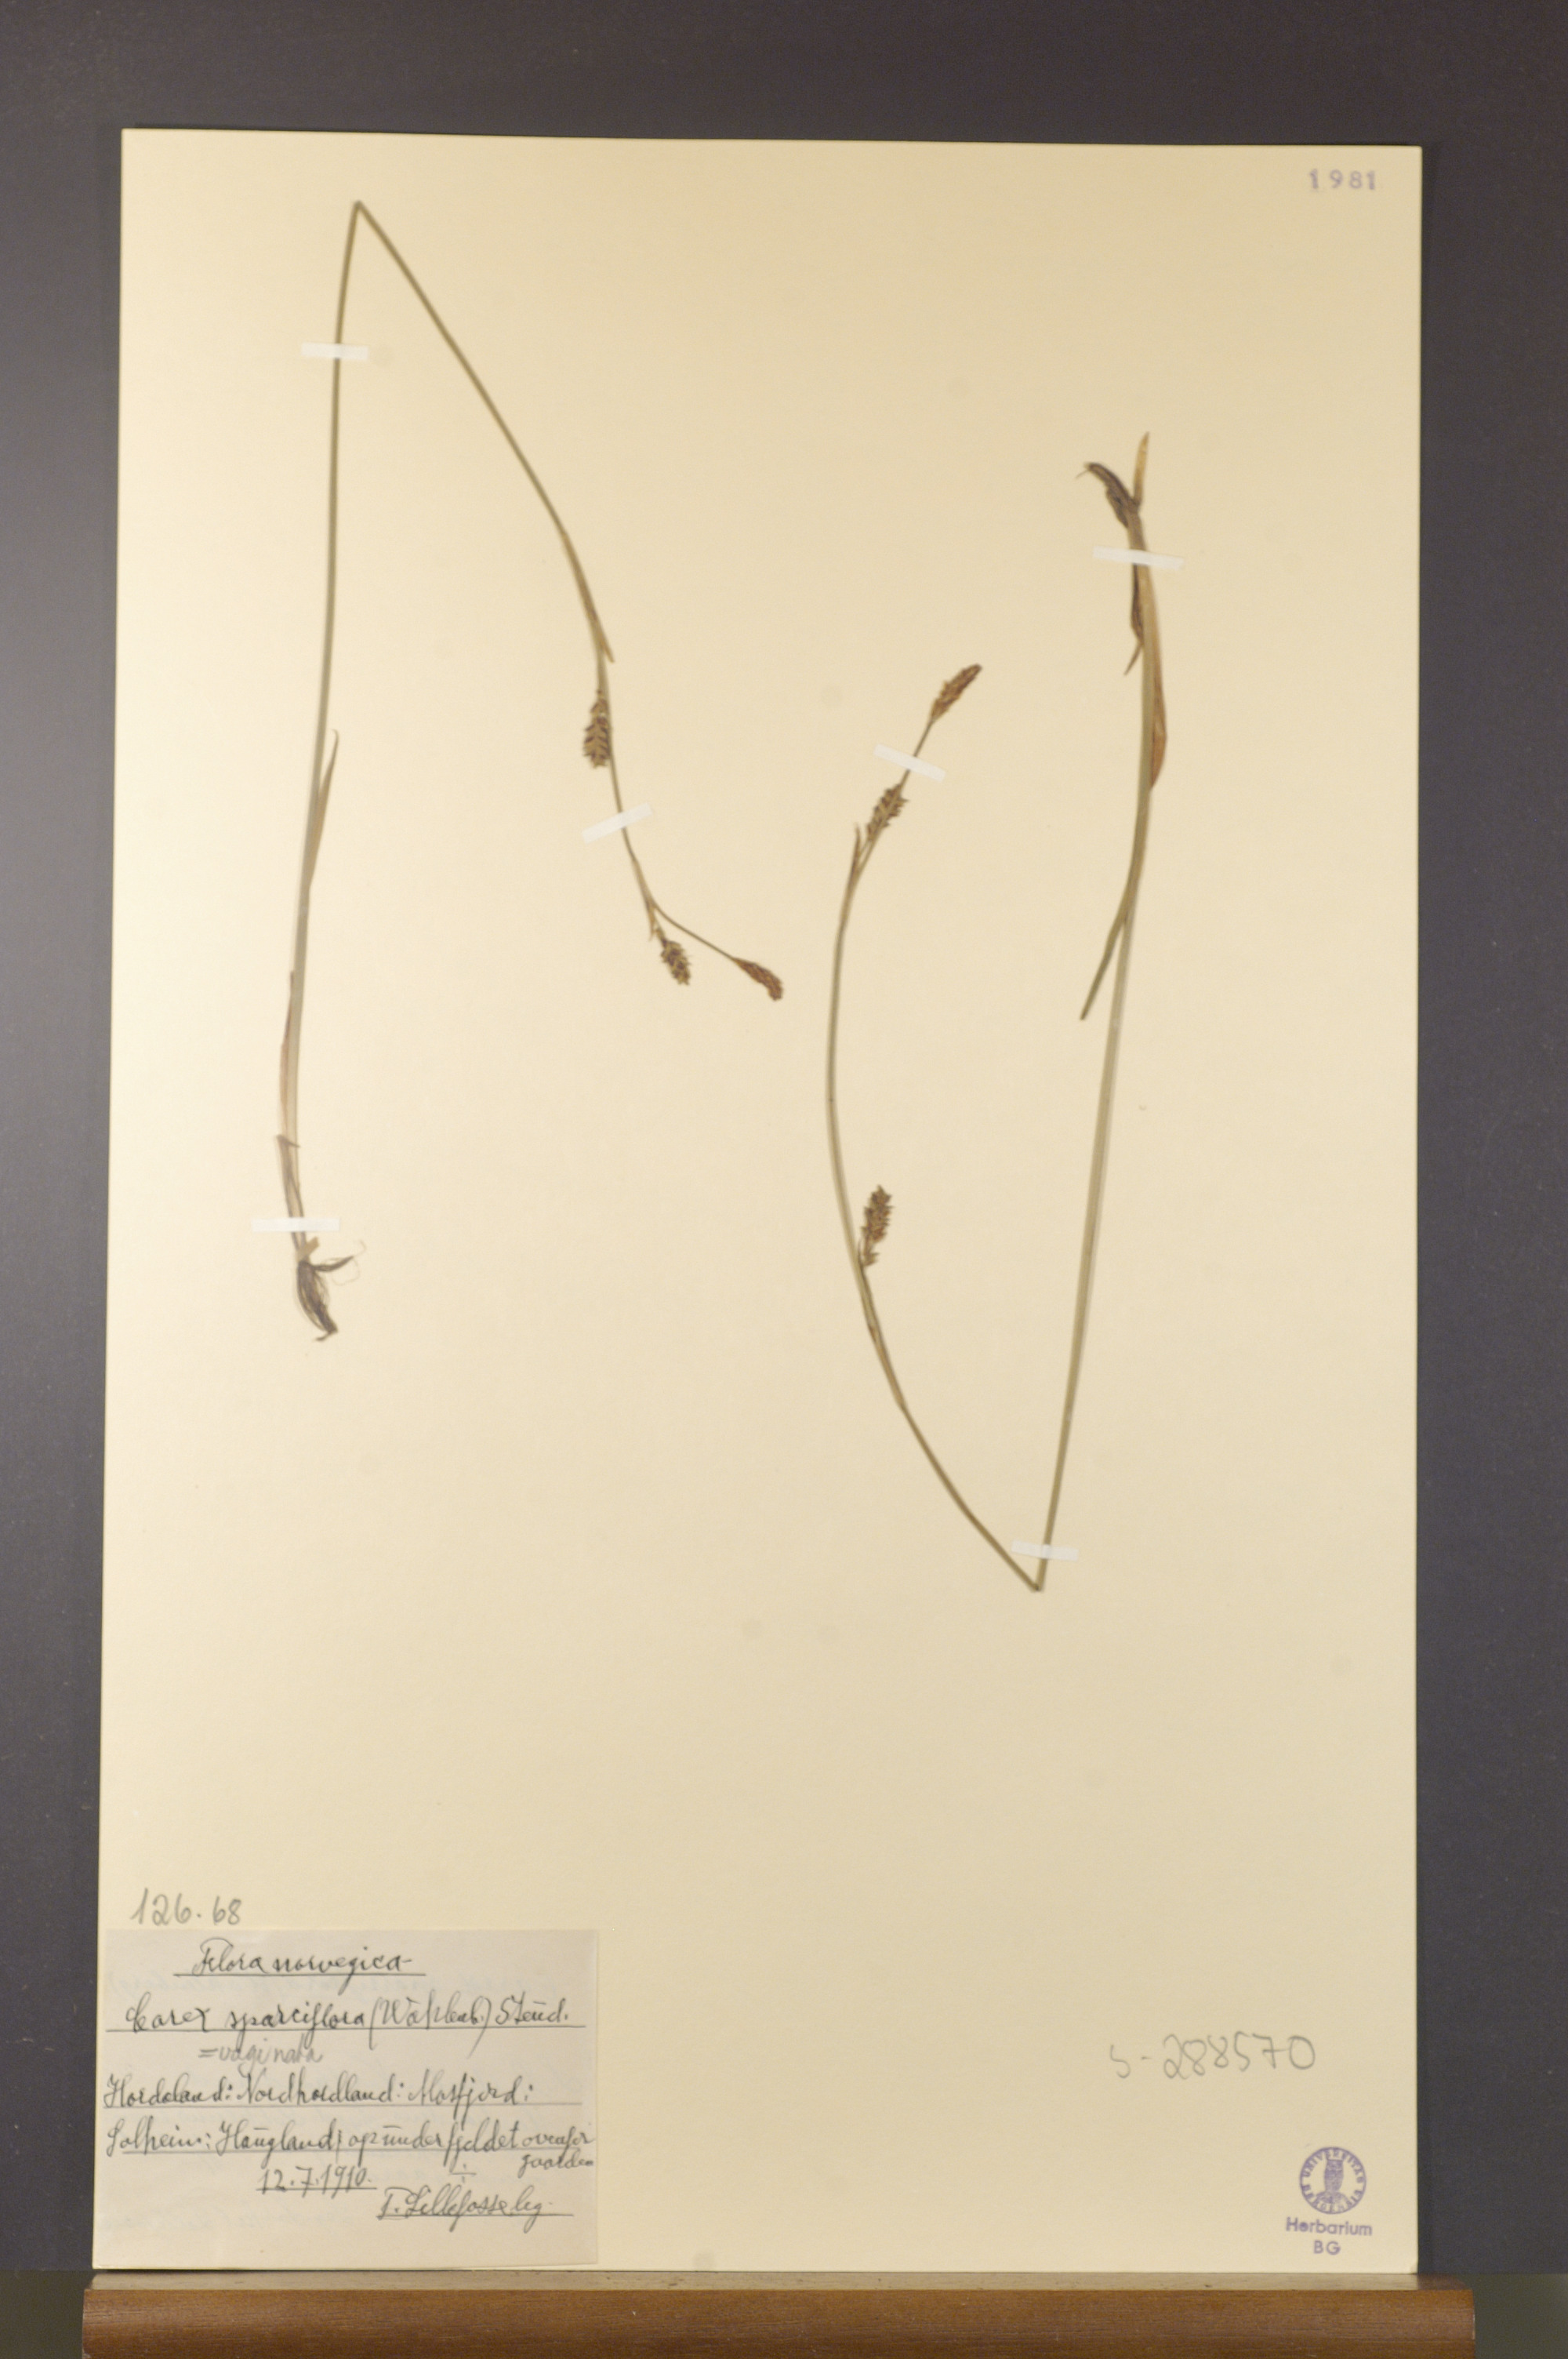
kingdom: Plantae
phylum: Tracheophyta
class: Liliopsida
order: Poales
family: Cyperaceae
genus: Carex
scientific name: Carex vaginata
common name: Sheathed sedge
